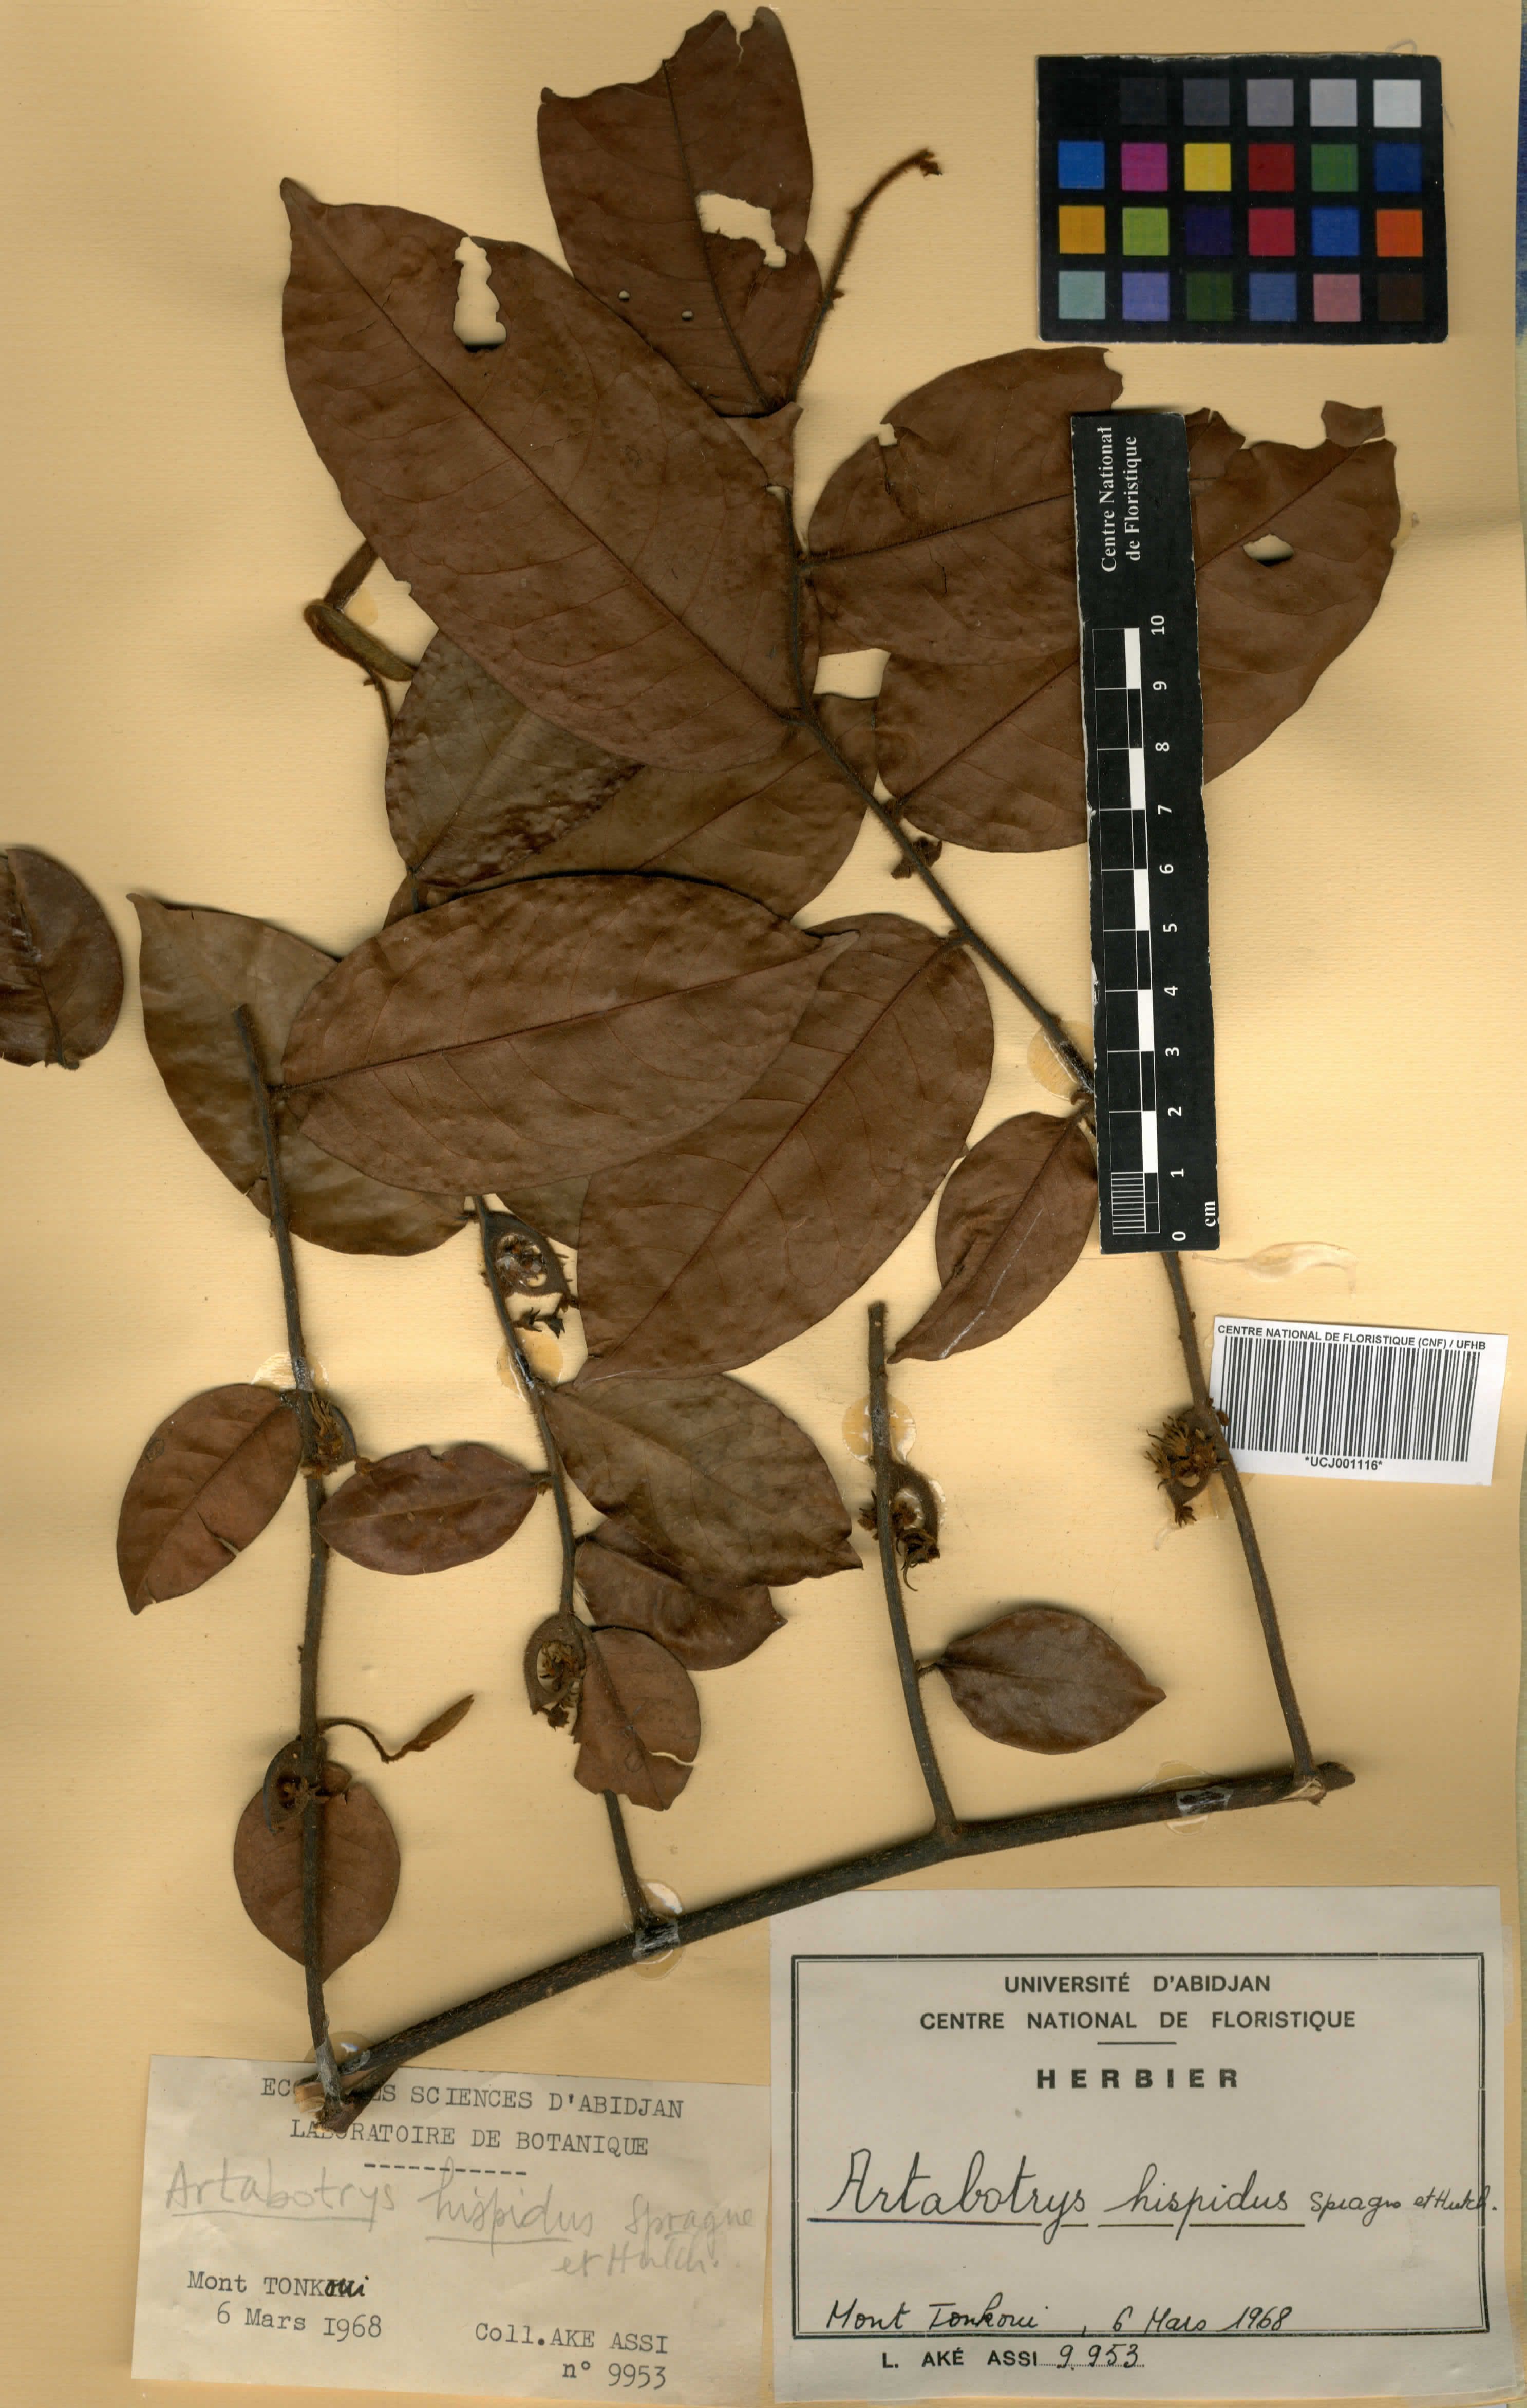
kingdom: Plantae
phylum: Tracheophyta
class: Magnoliopsida
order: Magnoliales
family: Annonaceae
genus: Artabotrys
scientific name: Artabotrys hispidus
